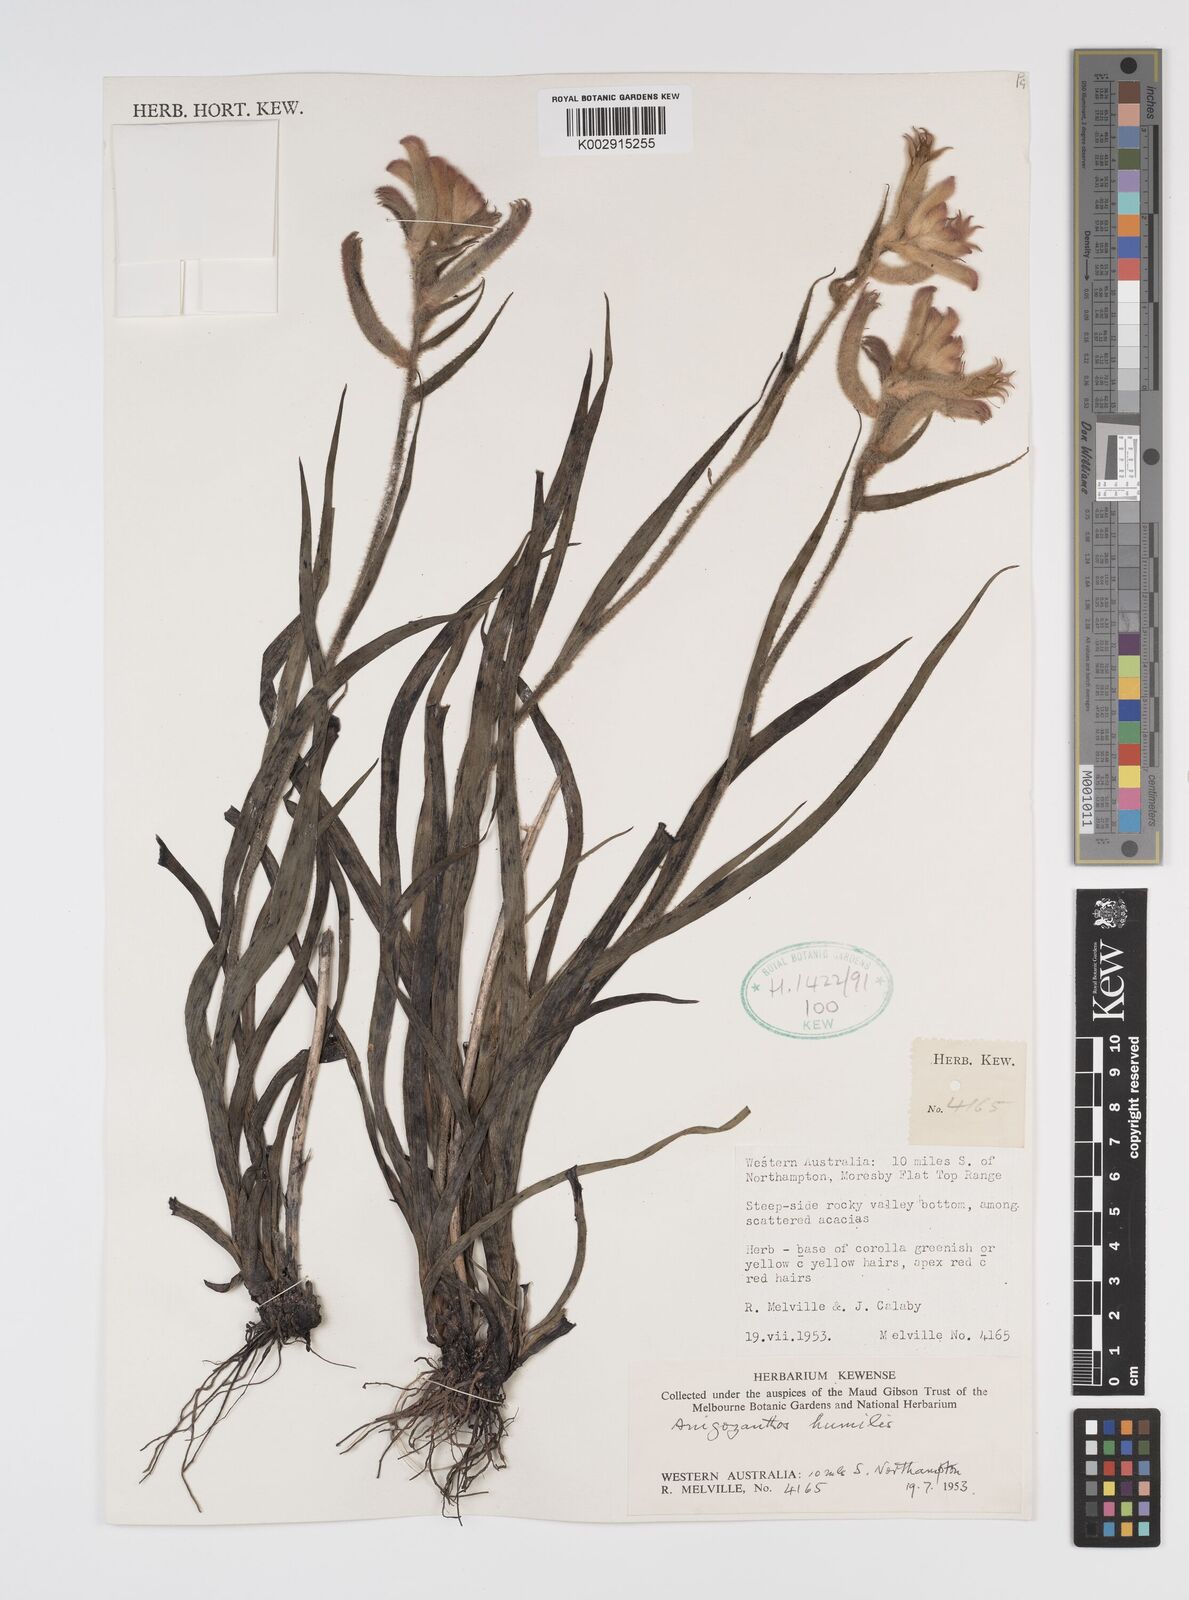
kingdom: Plantae
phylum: Tracheophyta
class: Liliopsida
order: Commelinales
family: Haemodoraceae
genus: Anigozanthos
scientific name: Anigozanthos humilis
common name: Cat's-paw
